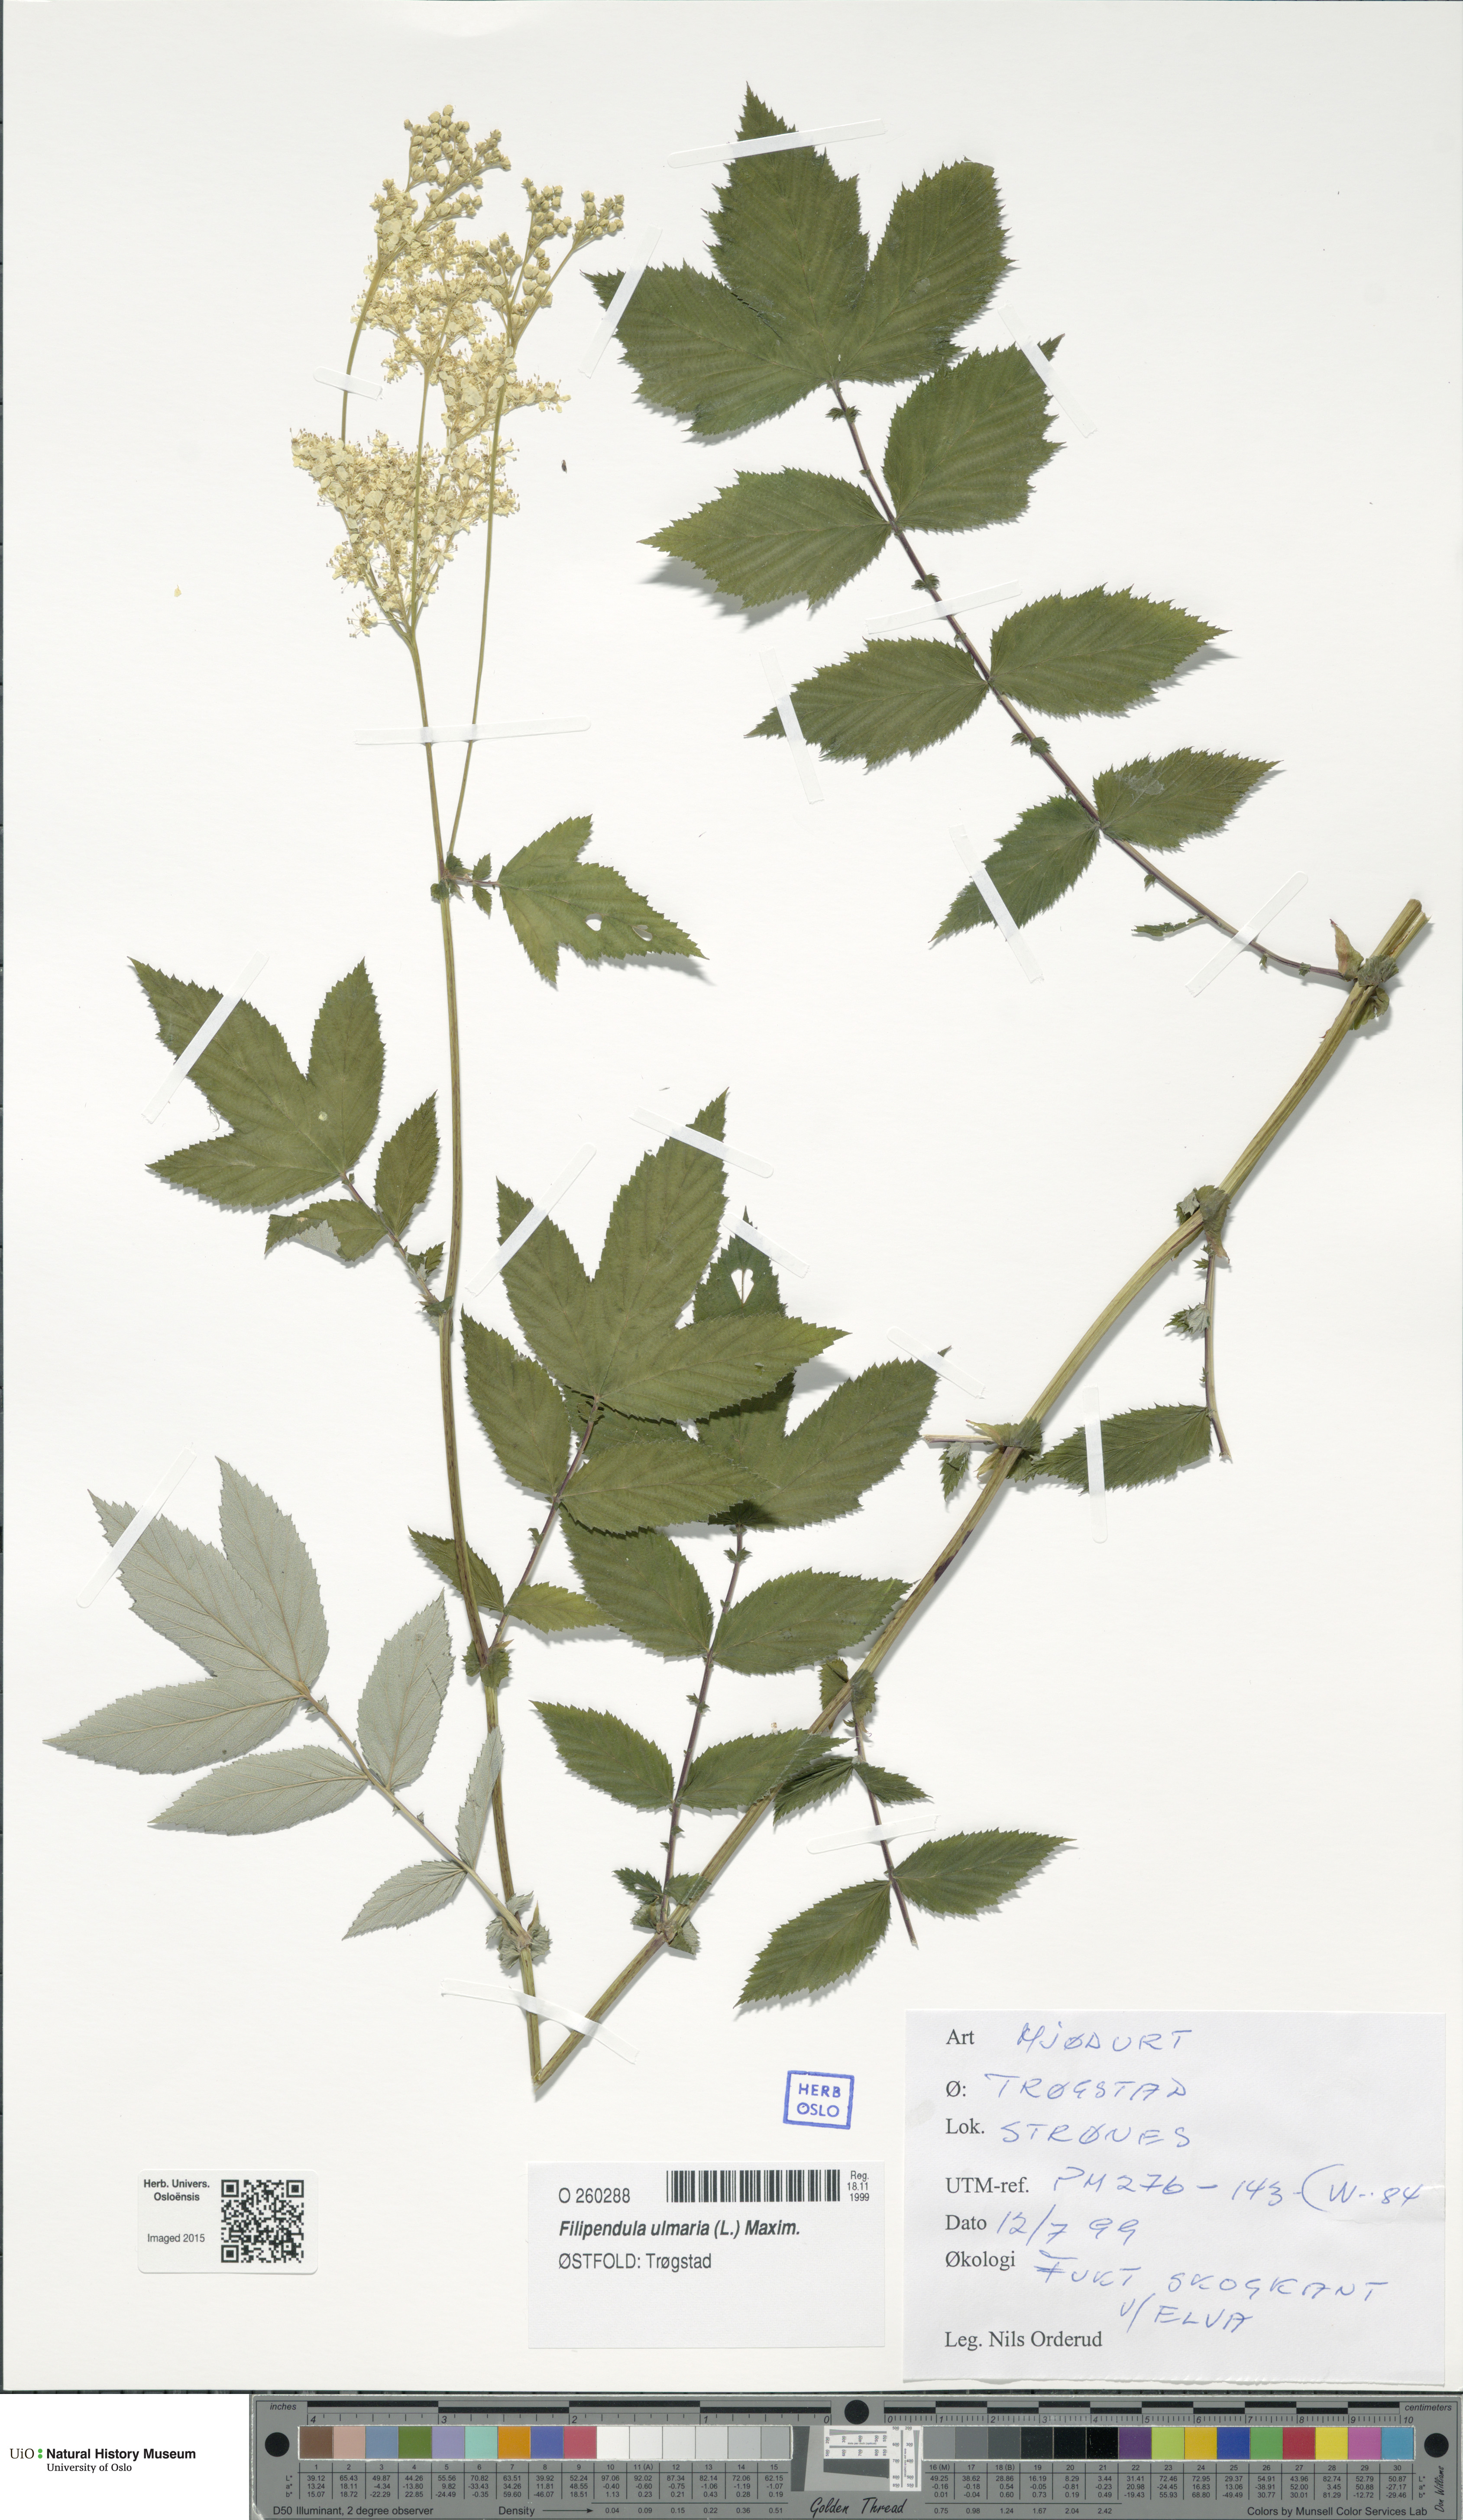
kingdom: Plantae
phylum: Tracheophyta
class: Magnoliopsida
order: Rosales
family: Rosaceae
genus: Filipendula
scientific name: Filipendula ulmaria
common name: Meadowsweet
